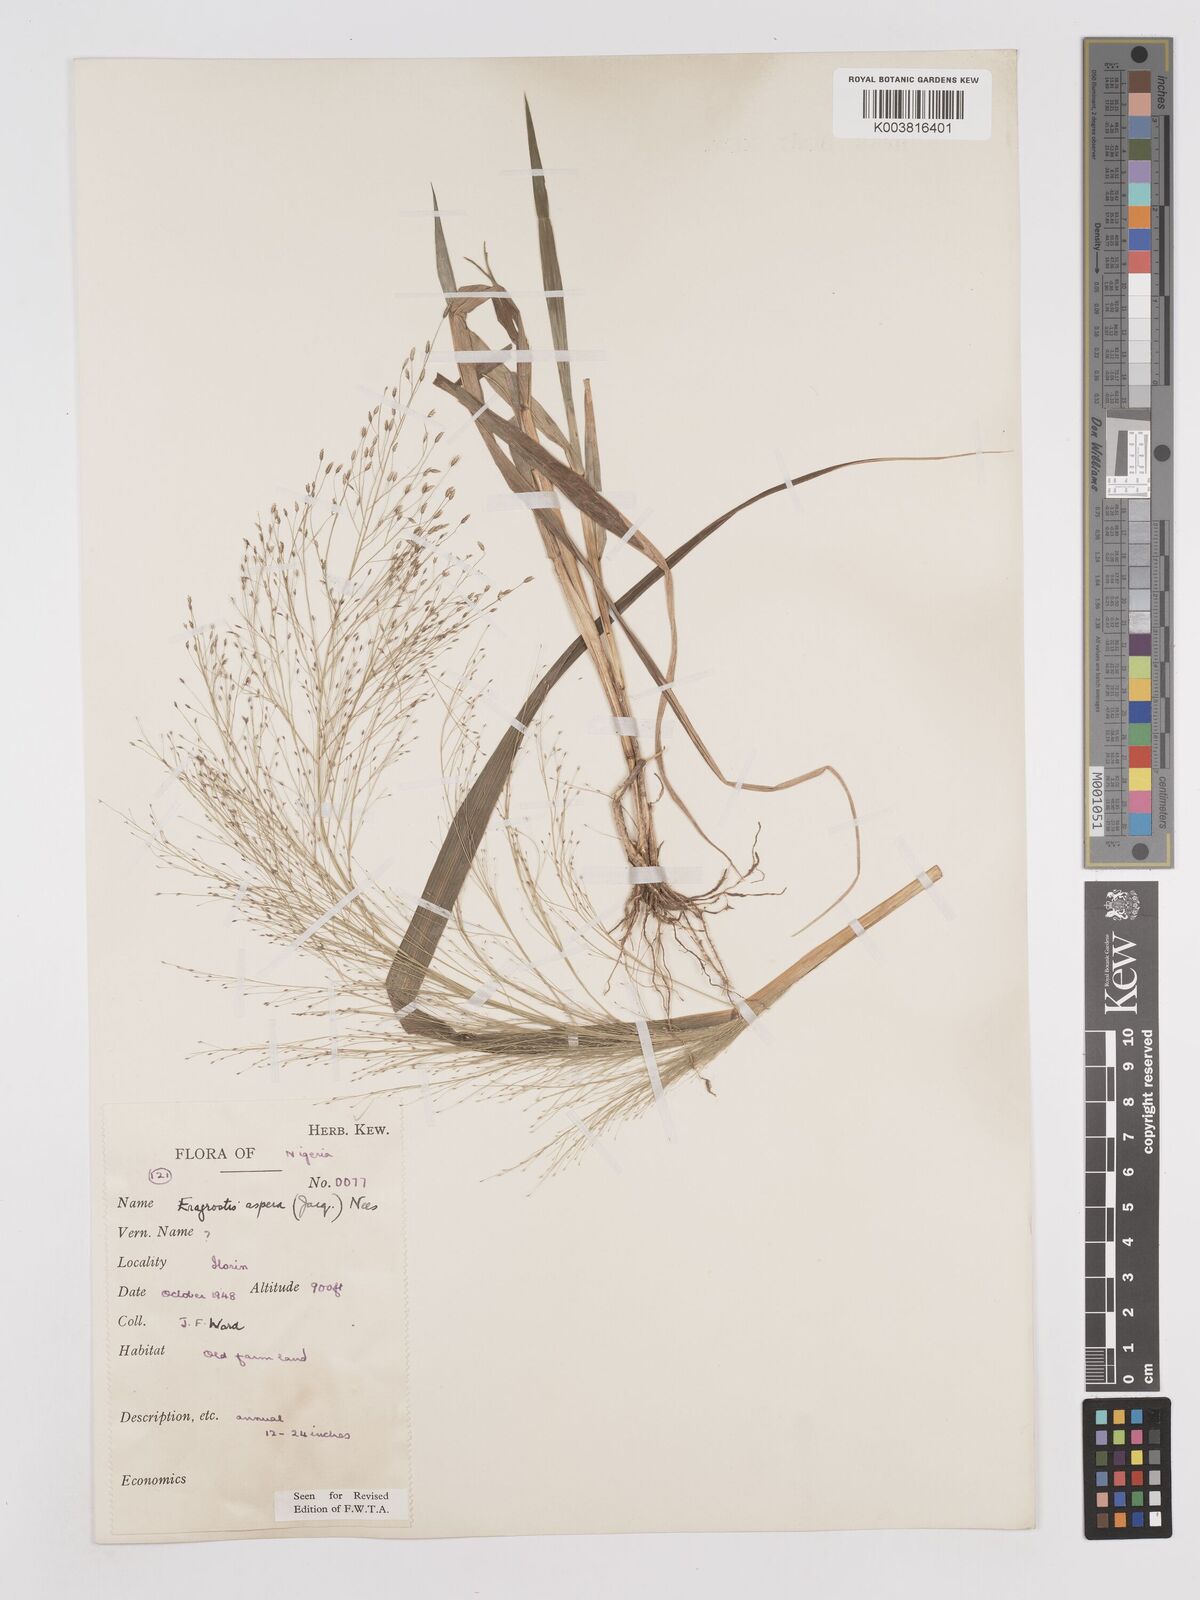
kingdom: Plantae
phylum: Tracheophyta
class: Liliopsida
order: Poales
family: Poaceae
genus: Eragrostis
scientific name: Eragrostis aspera
